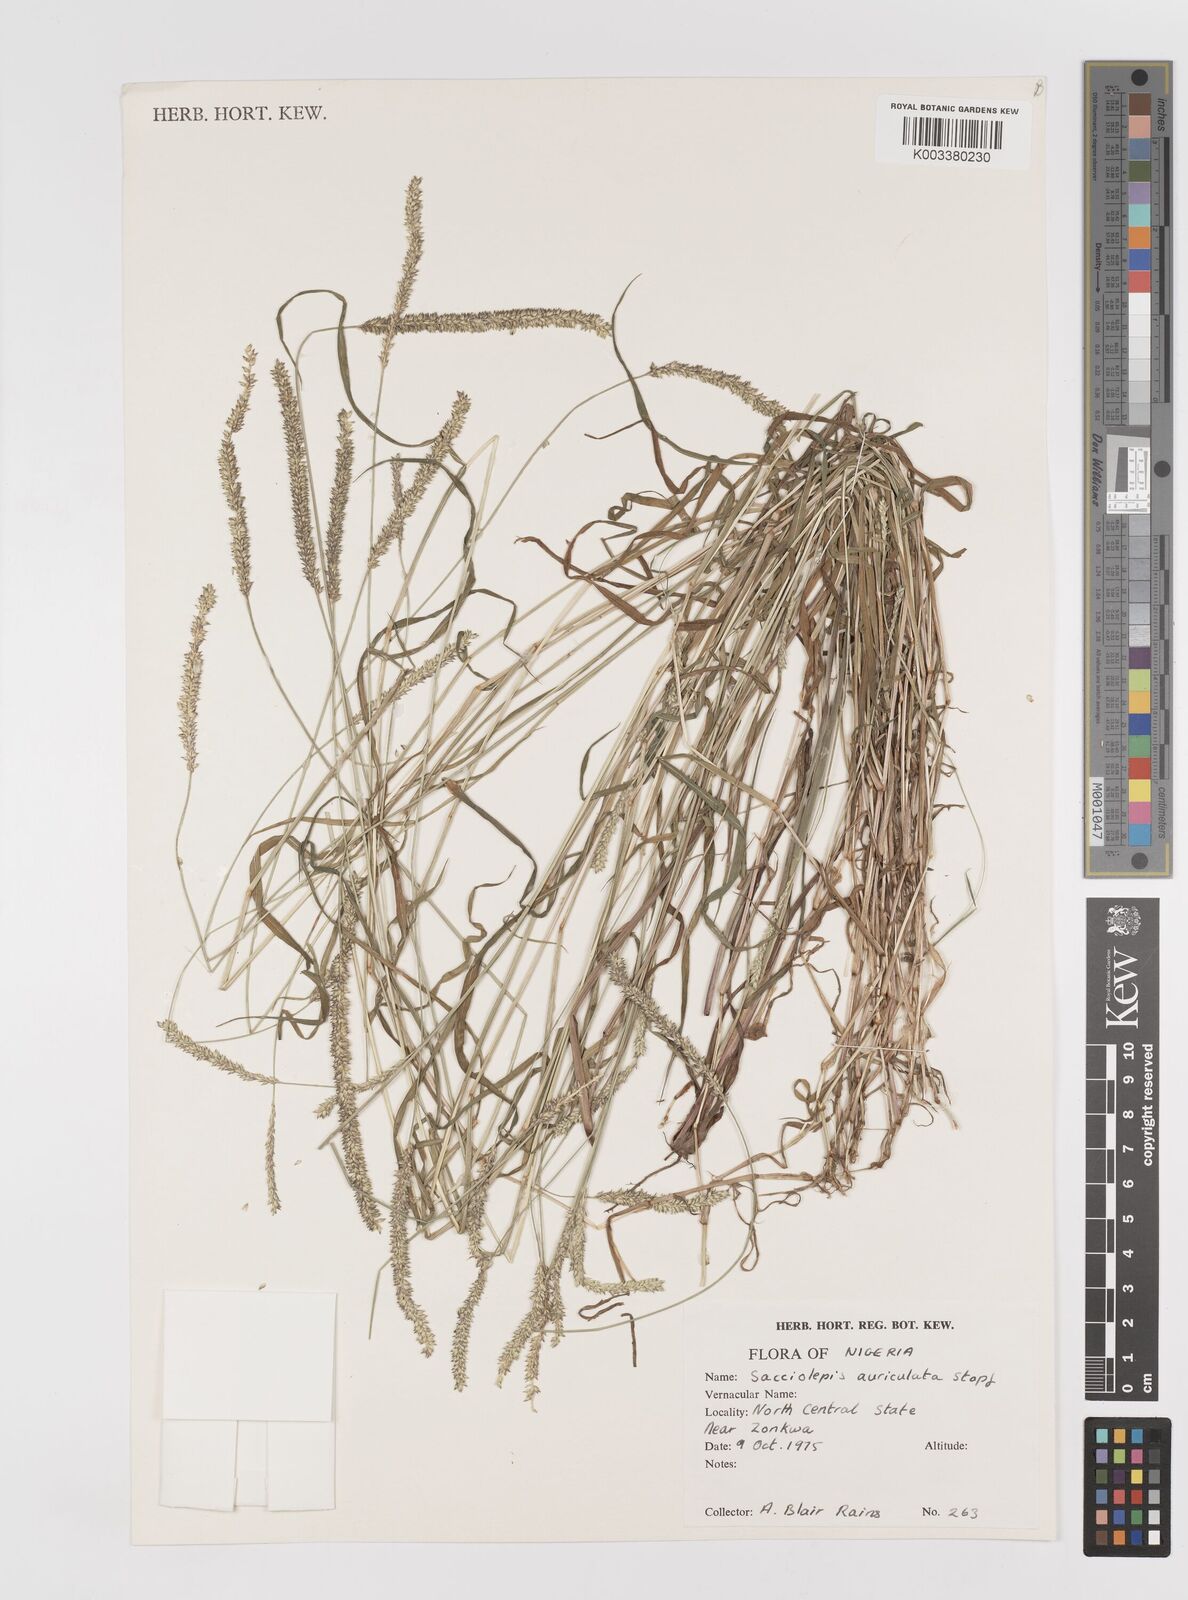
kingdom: Plantae
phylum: Tracheophyta
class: Liliopsida
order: Poales
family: Poaceae
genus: Sacciolepis
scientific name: Sacciolepis indica
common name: Glenwoodgrass
